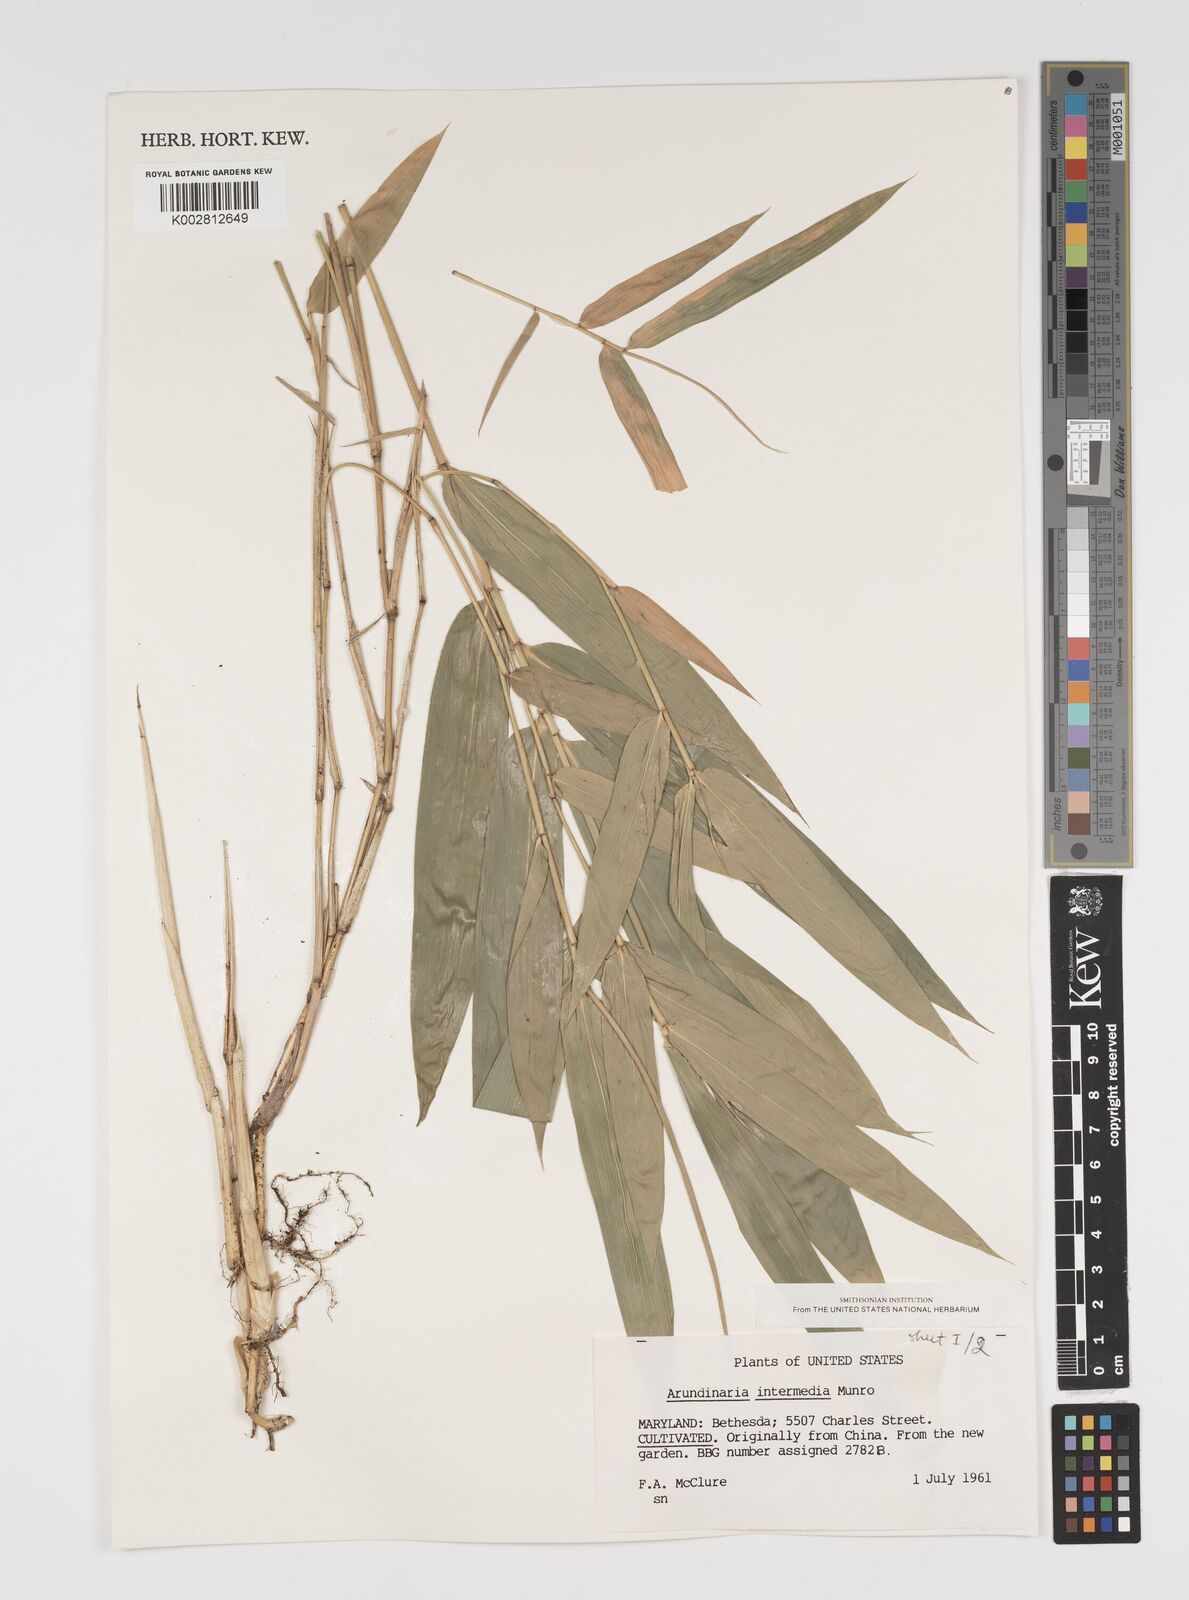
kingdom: Plantae
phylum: Tracheophyta
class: Liliopsida
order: Poales
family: Poaceae
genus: Arundinaria
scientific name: Arundinaria
